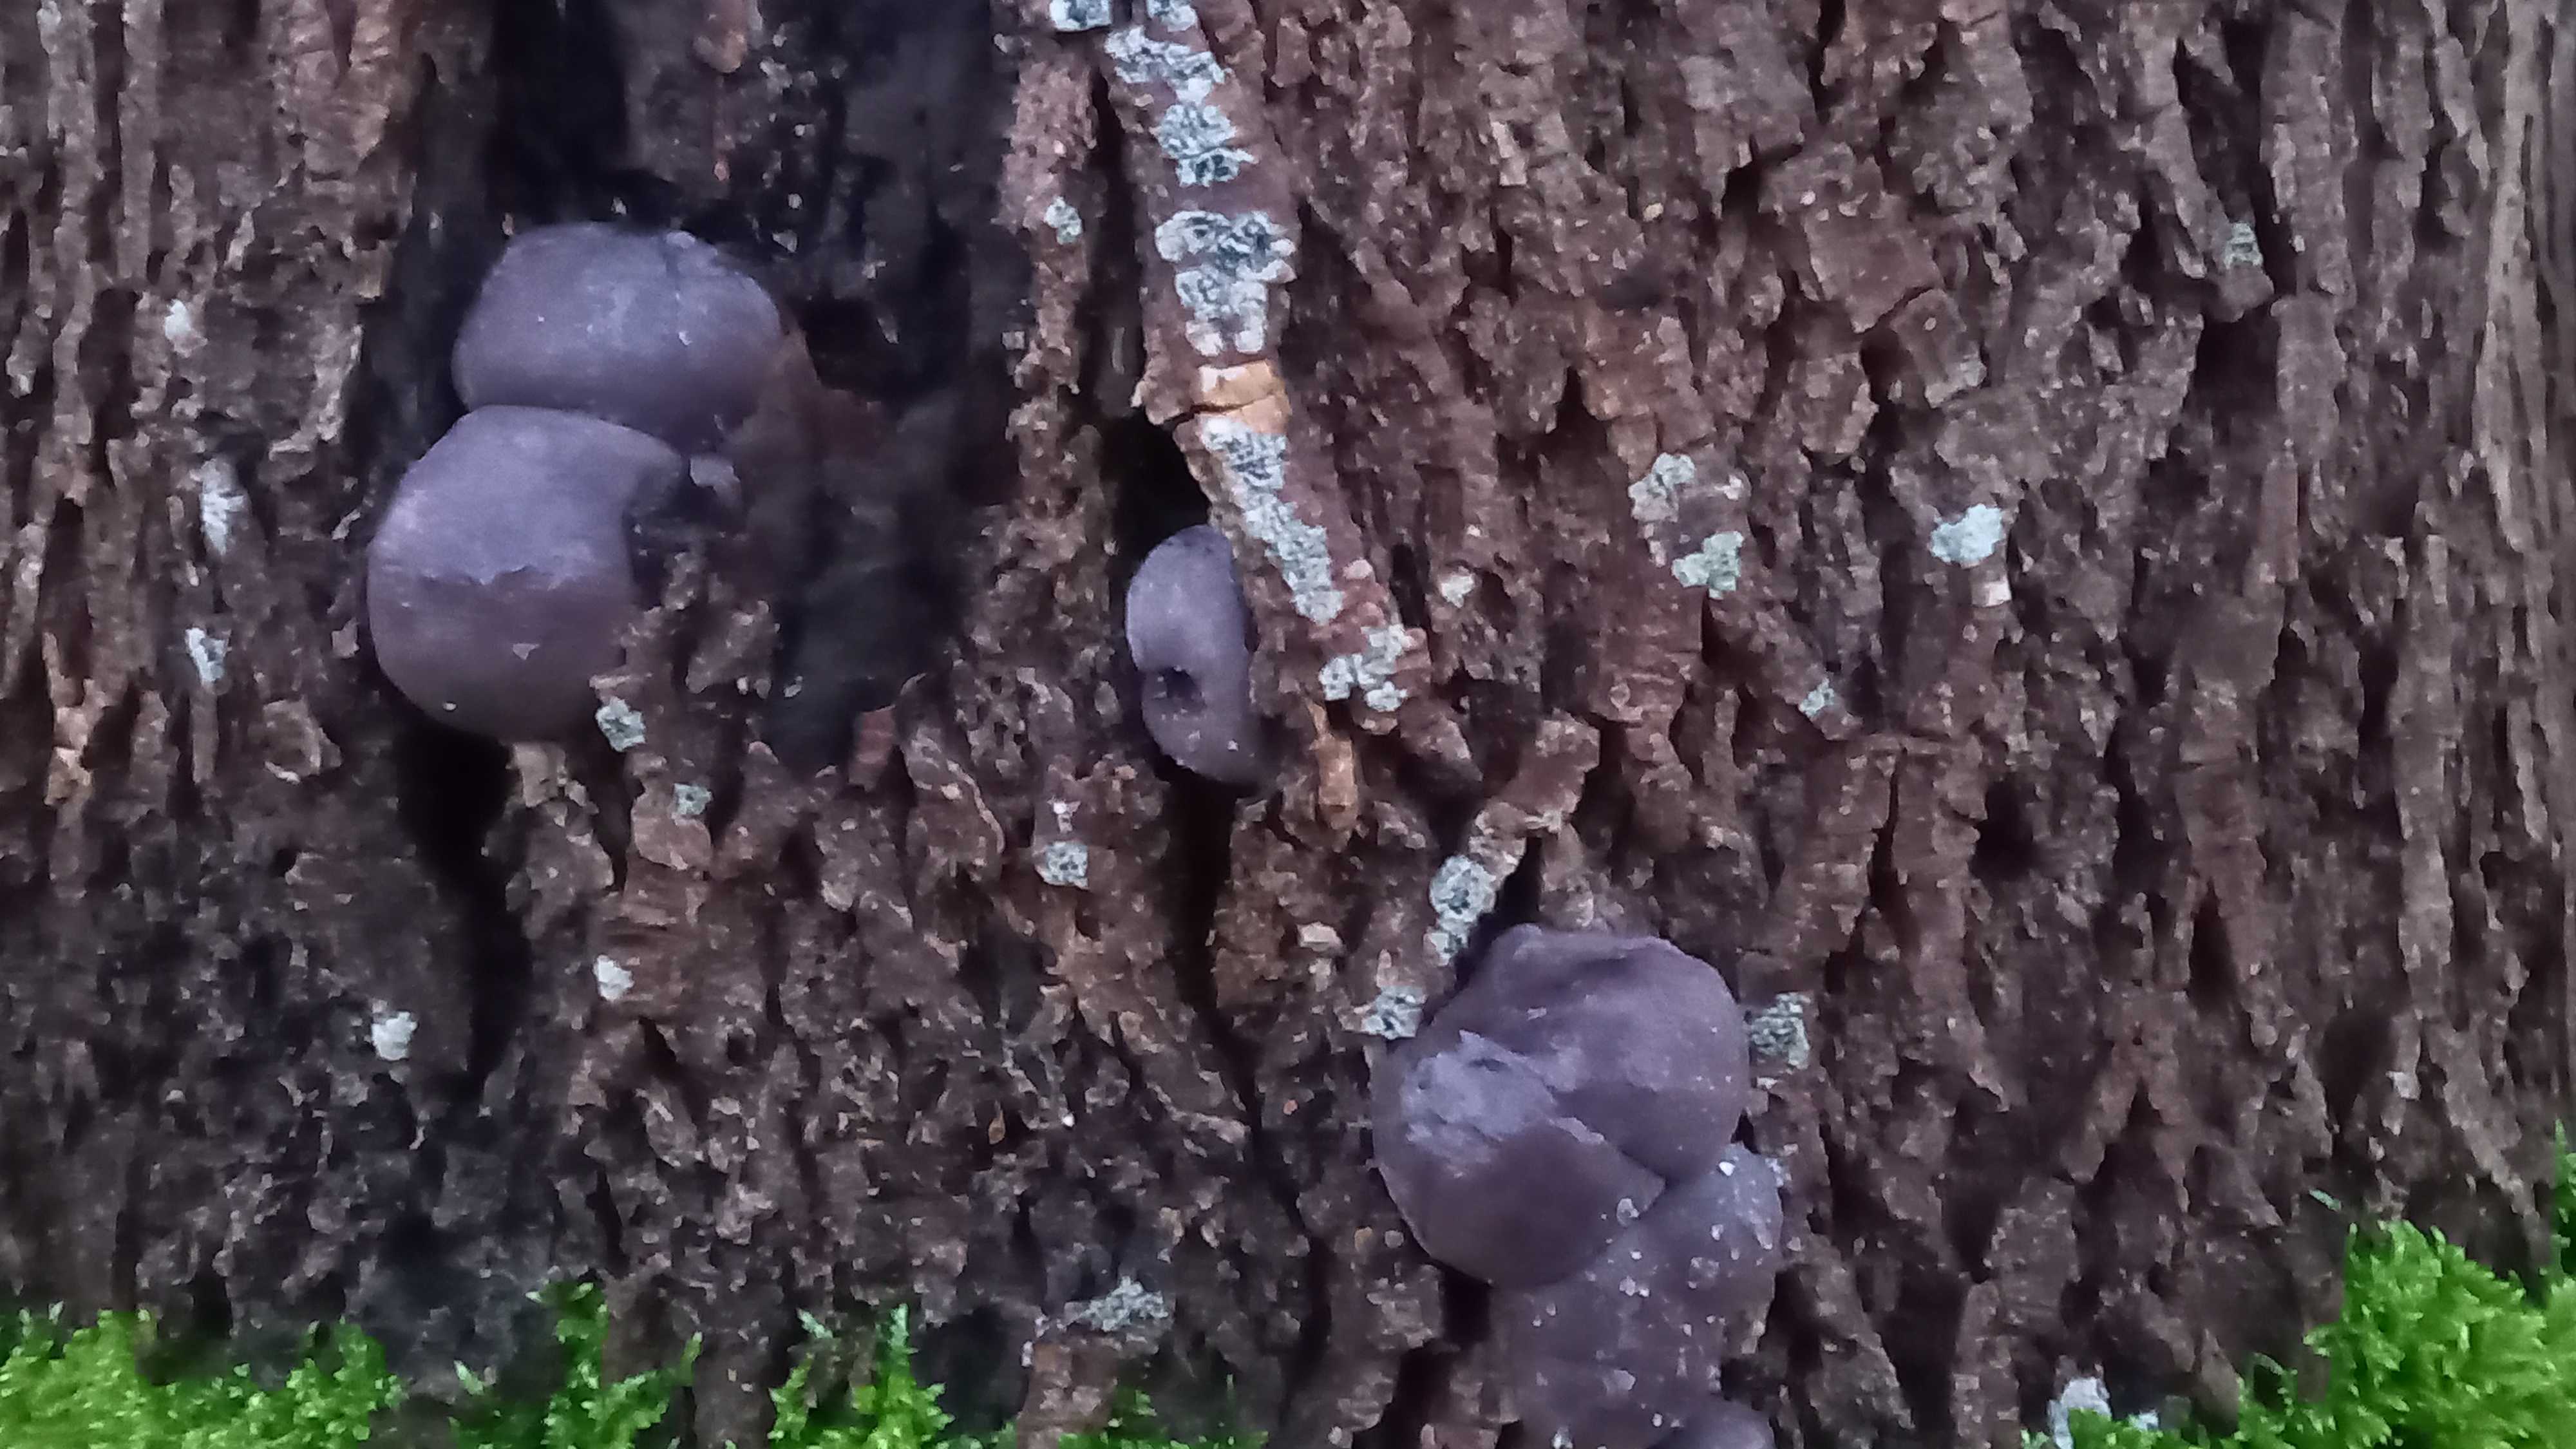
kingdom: Fungi
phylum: Ascomycota
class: Sordariomycetes
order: Xylariales
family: Hypoxylaceae
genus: Daldinia
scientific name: Daldinia concentrica
